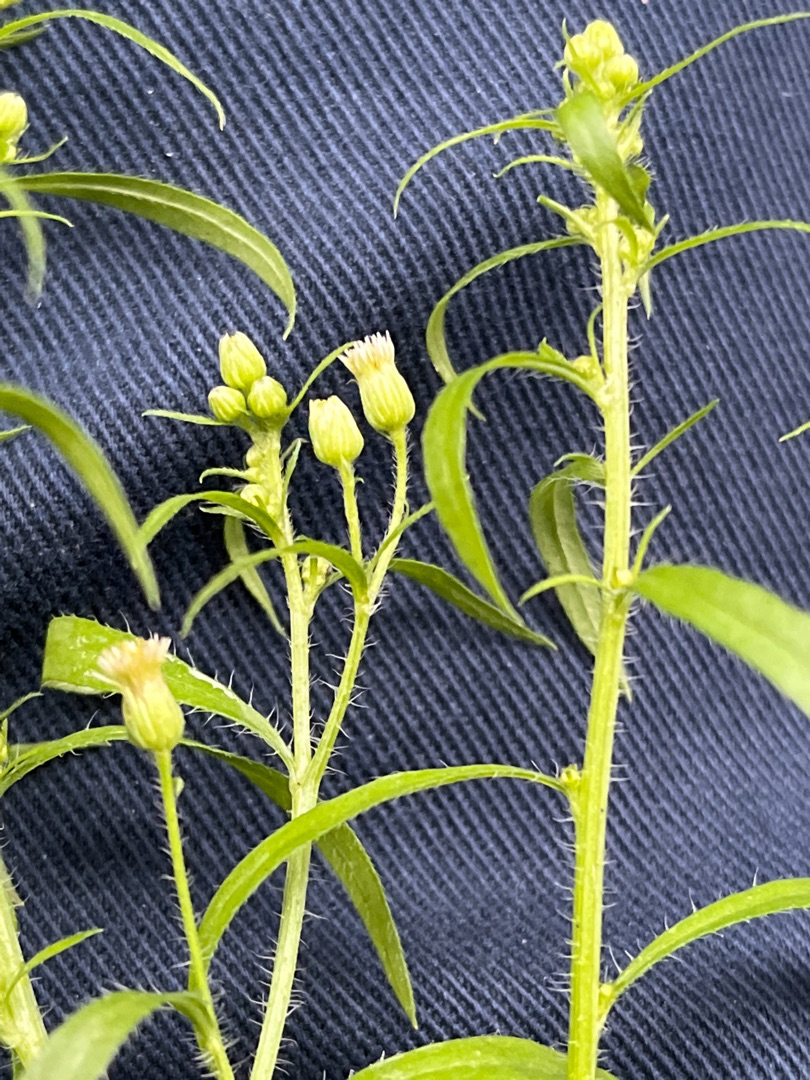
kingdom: Plantae
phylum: Tracheophyta
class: Magnoliopsida
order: Asterales
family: Asteraceae
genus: Erigeron
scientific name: Erigeron canadensis
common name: Kanadisk bakkestjerne
